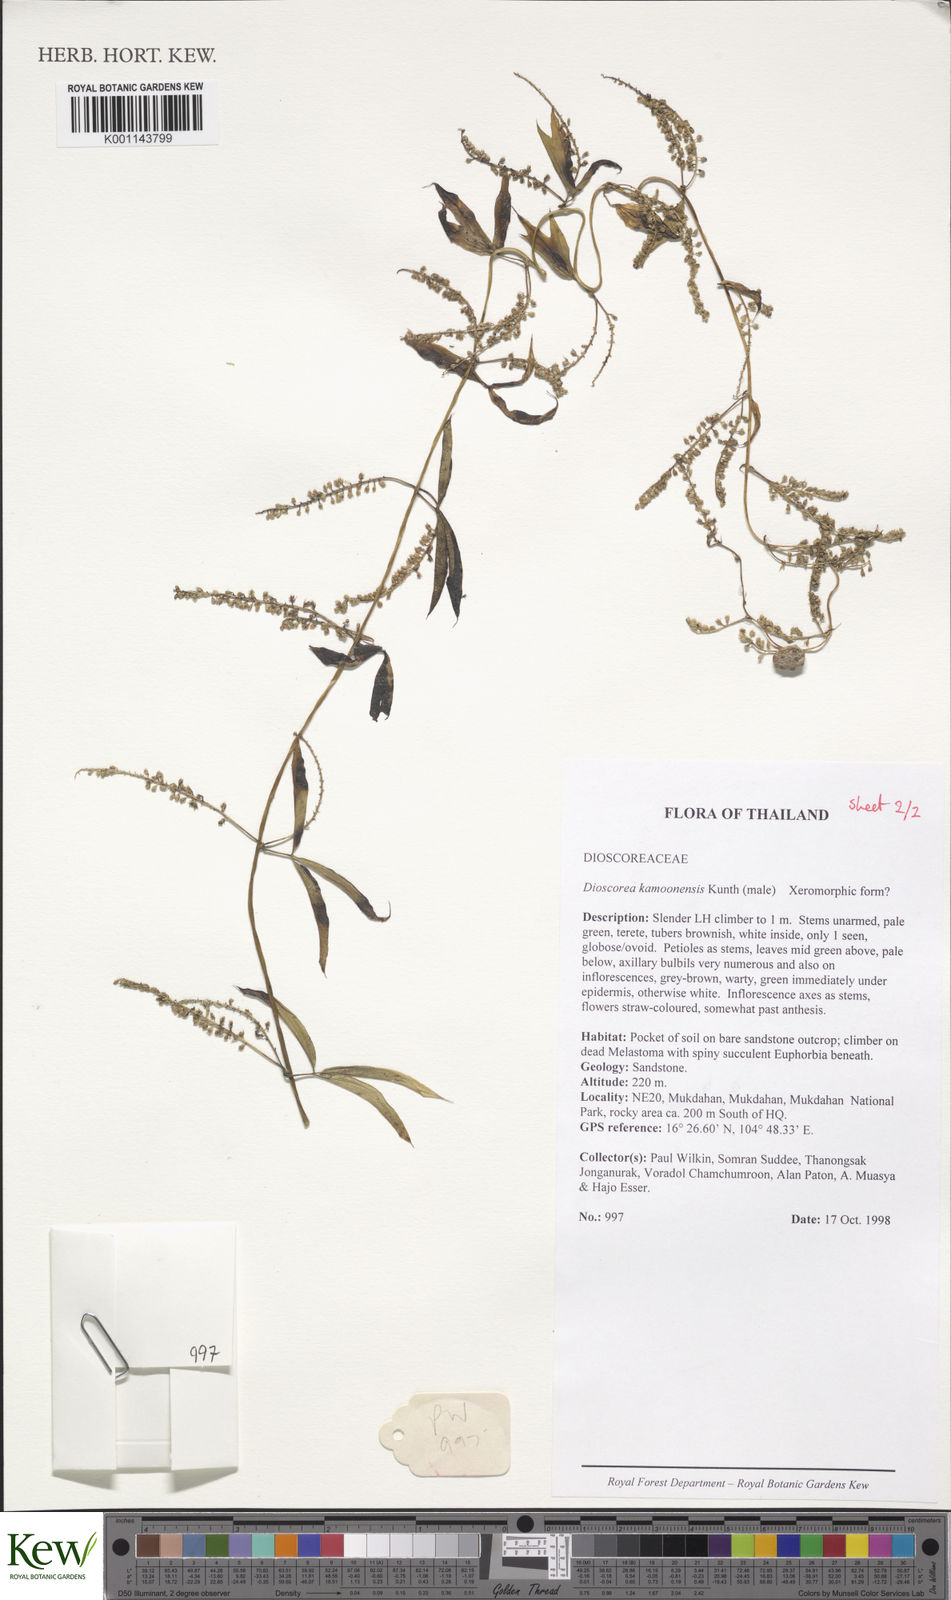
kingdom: Plantae
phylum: Tracheophyta
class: Liliopsida
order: Dioscoreales
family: Dioscoreaceae
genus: Dioscorea
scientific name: Dioscorea kamoonensis
